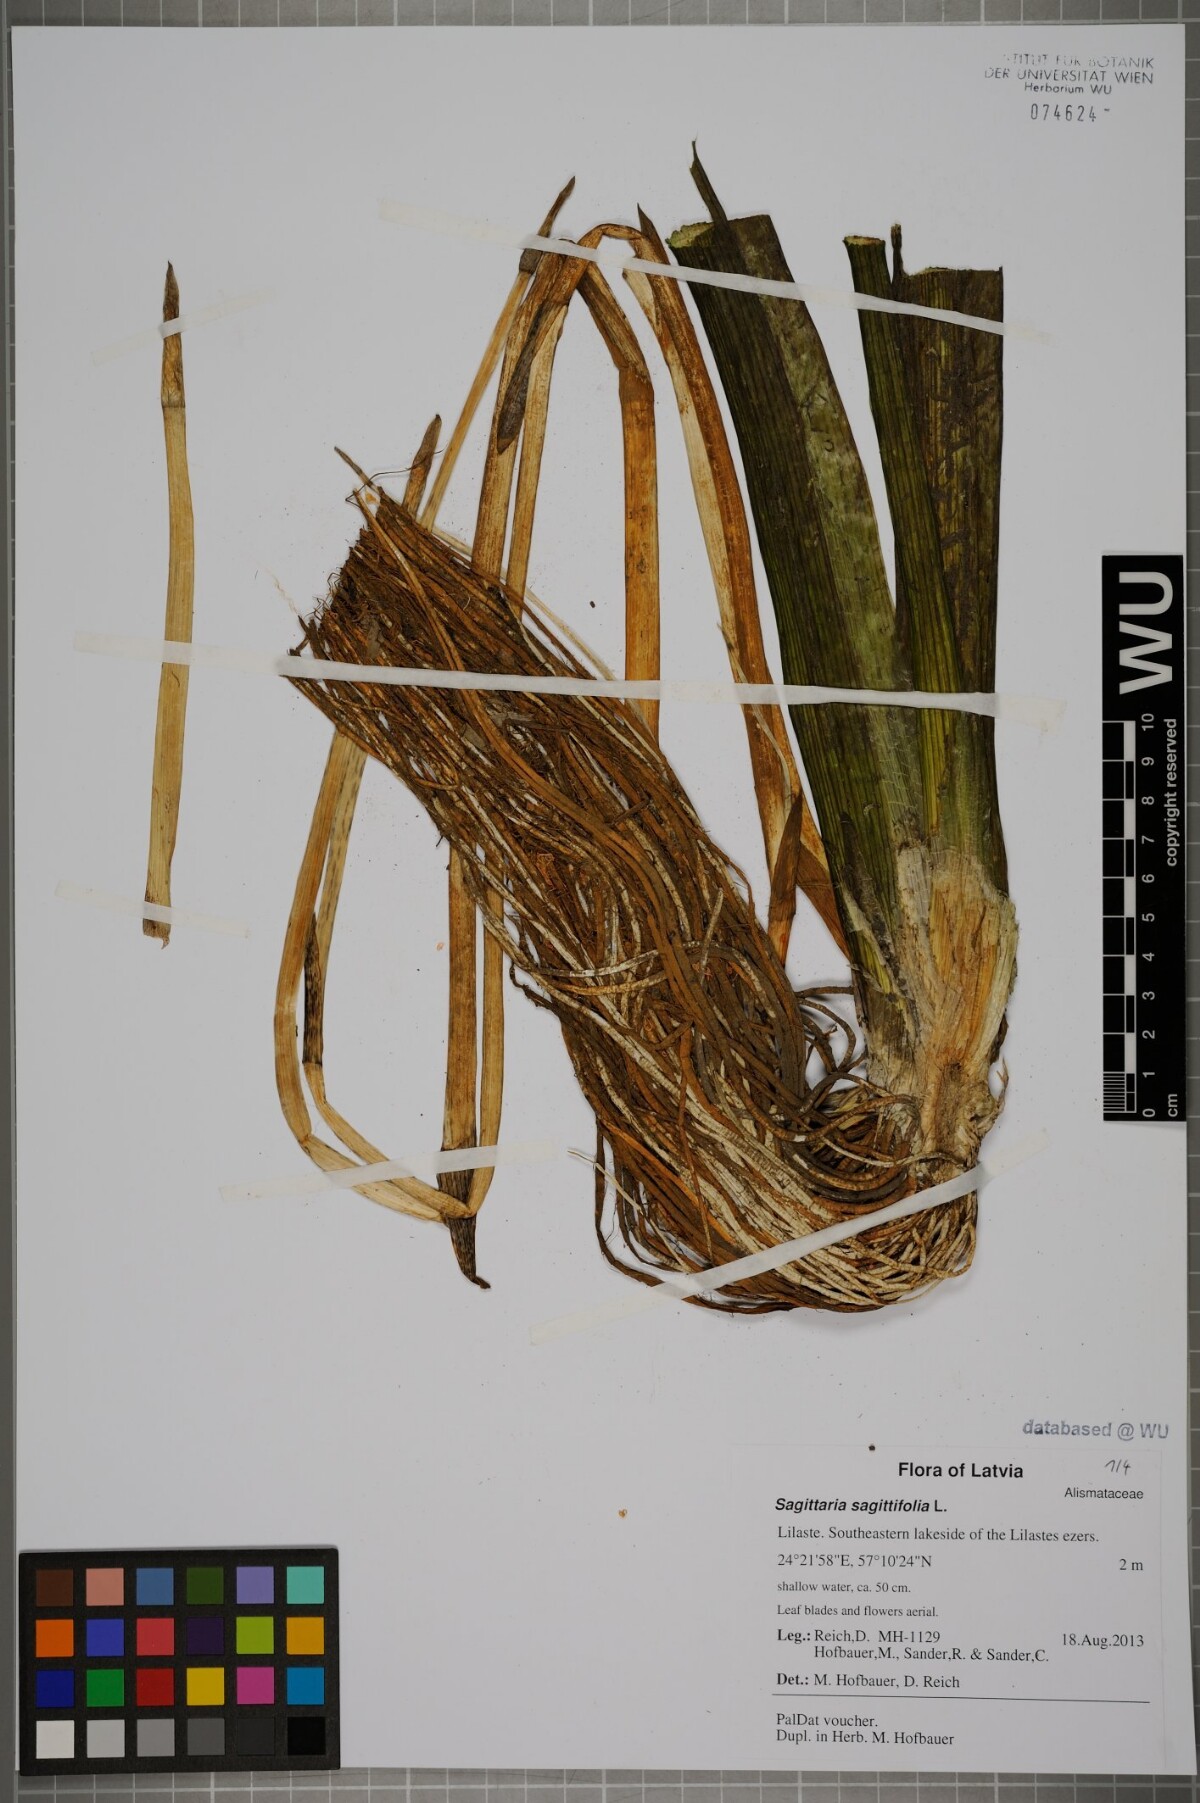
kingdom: Plantae
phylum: Tracheophyta
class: Liliopsida
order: Alismatales
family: Alismataceae
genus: Sagittaria
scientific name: Sagittaria sagittifolia
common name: Arrowhead
